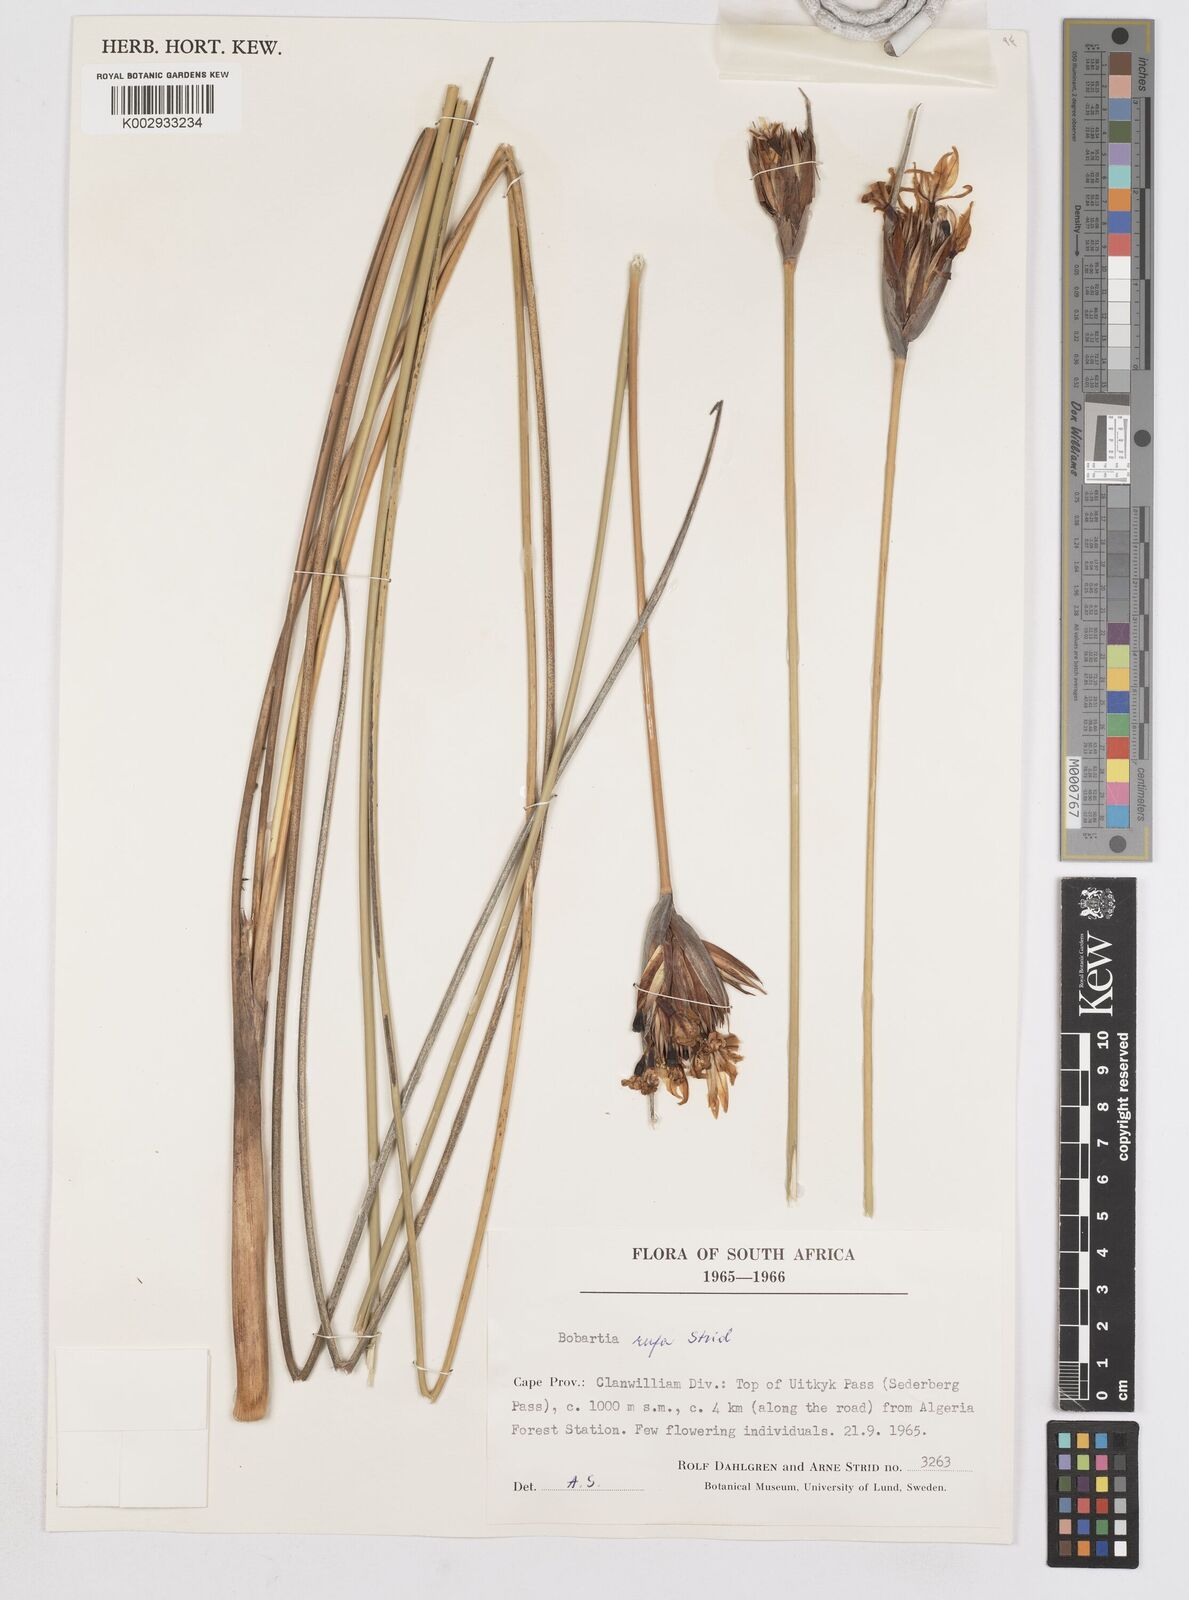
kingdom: Plantae
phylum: Tracheophyta
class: Liliopsida
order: Asparagales
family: Iridaceae
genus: Bobartia
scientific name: Bobartia rufa
